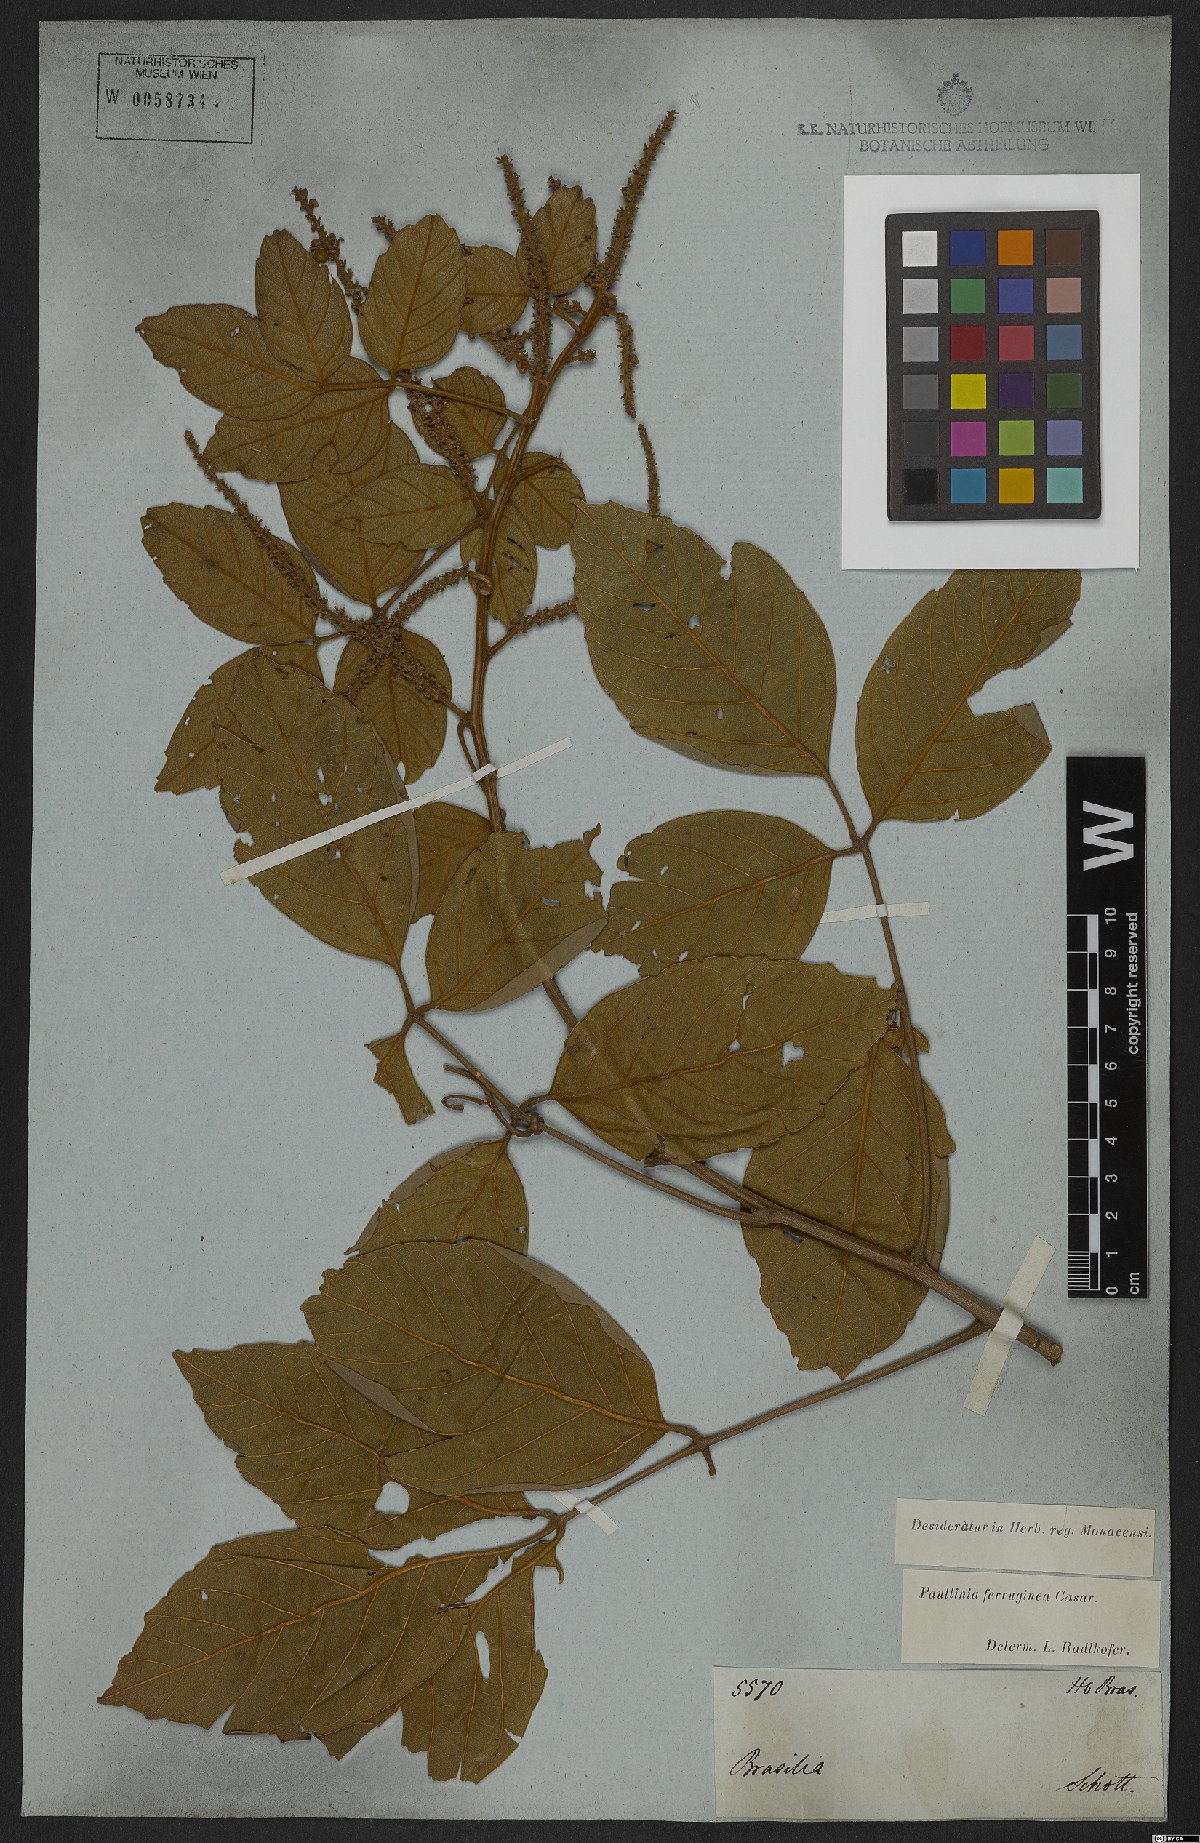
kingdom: Plantae
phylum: Tracheophyta
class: Magnoliopsida
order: Sapindales
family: Sapindaceae
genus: Paullinia
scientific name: Paullinia ferruginea
